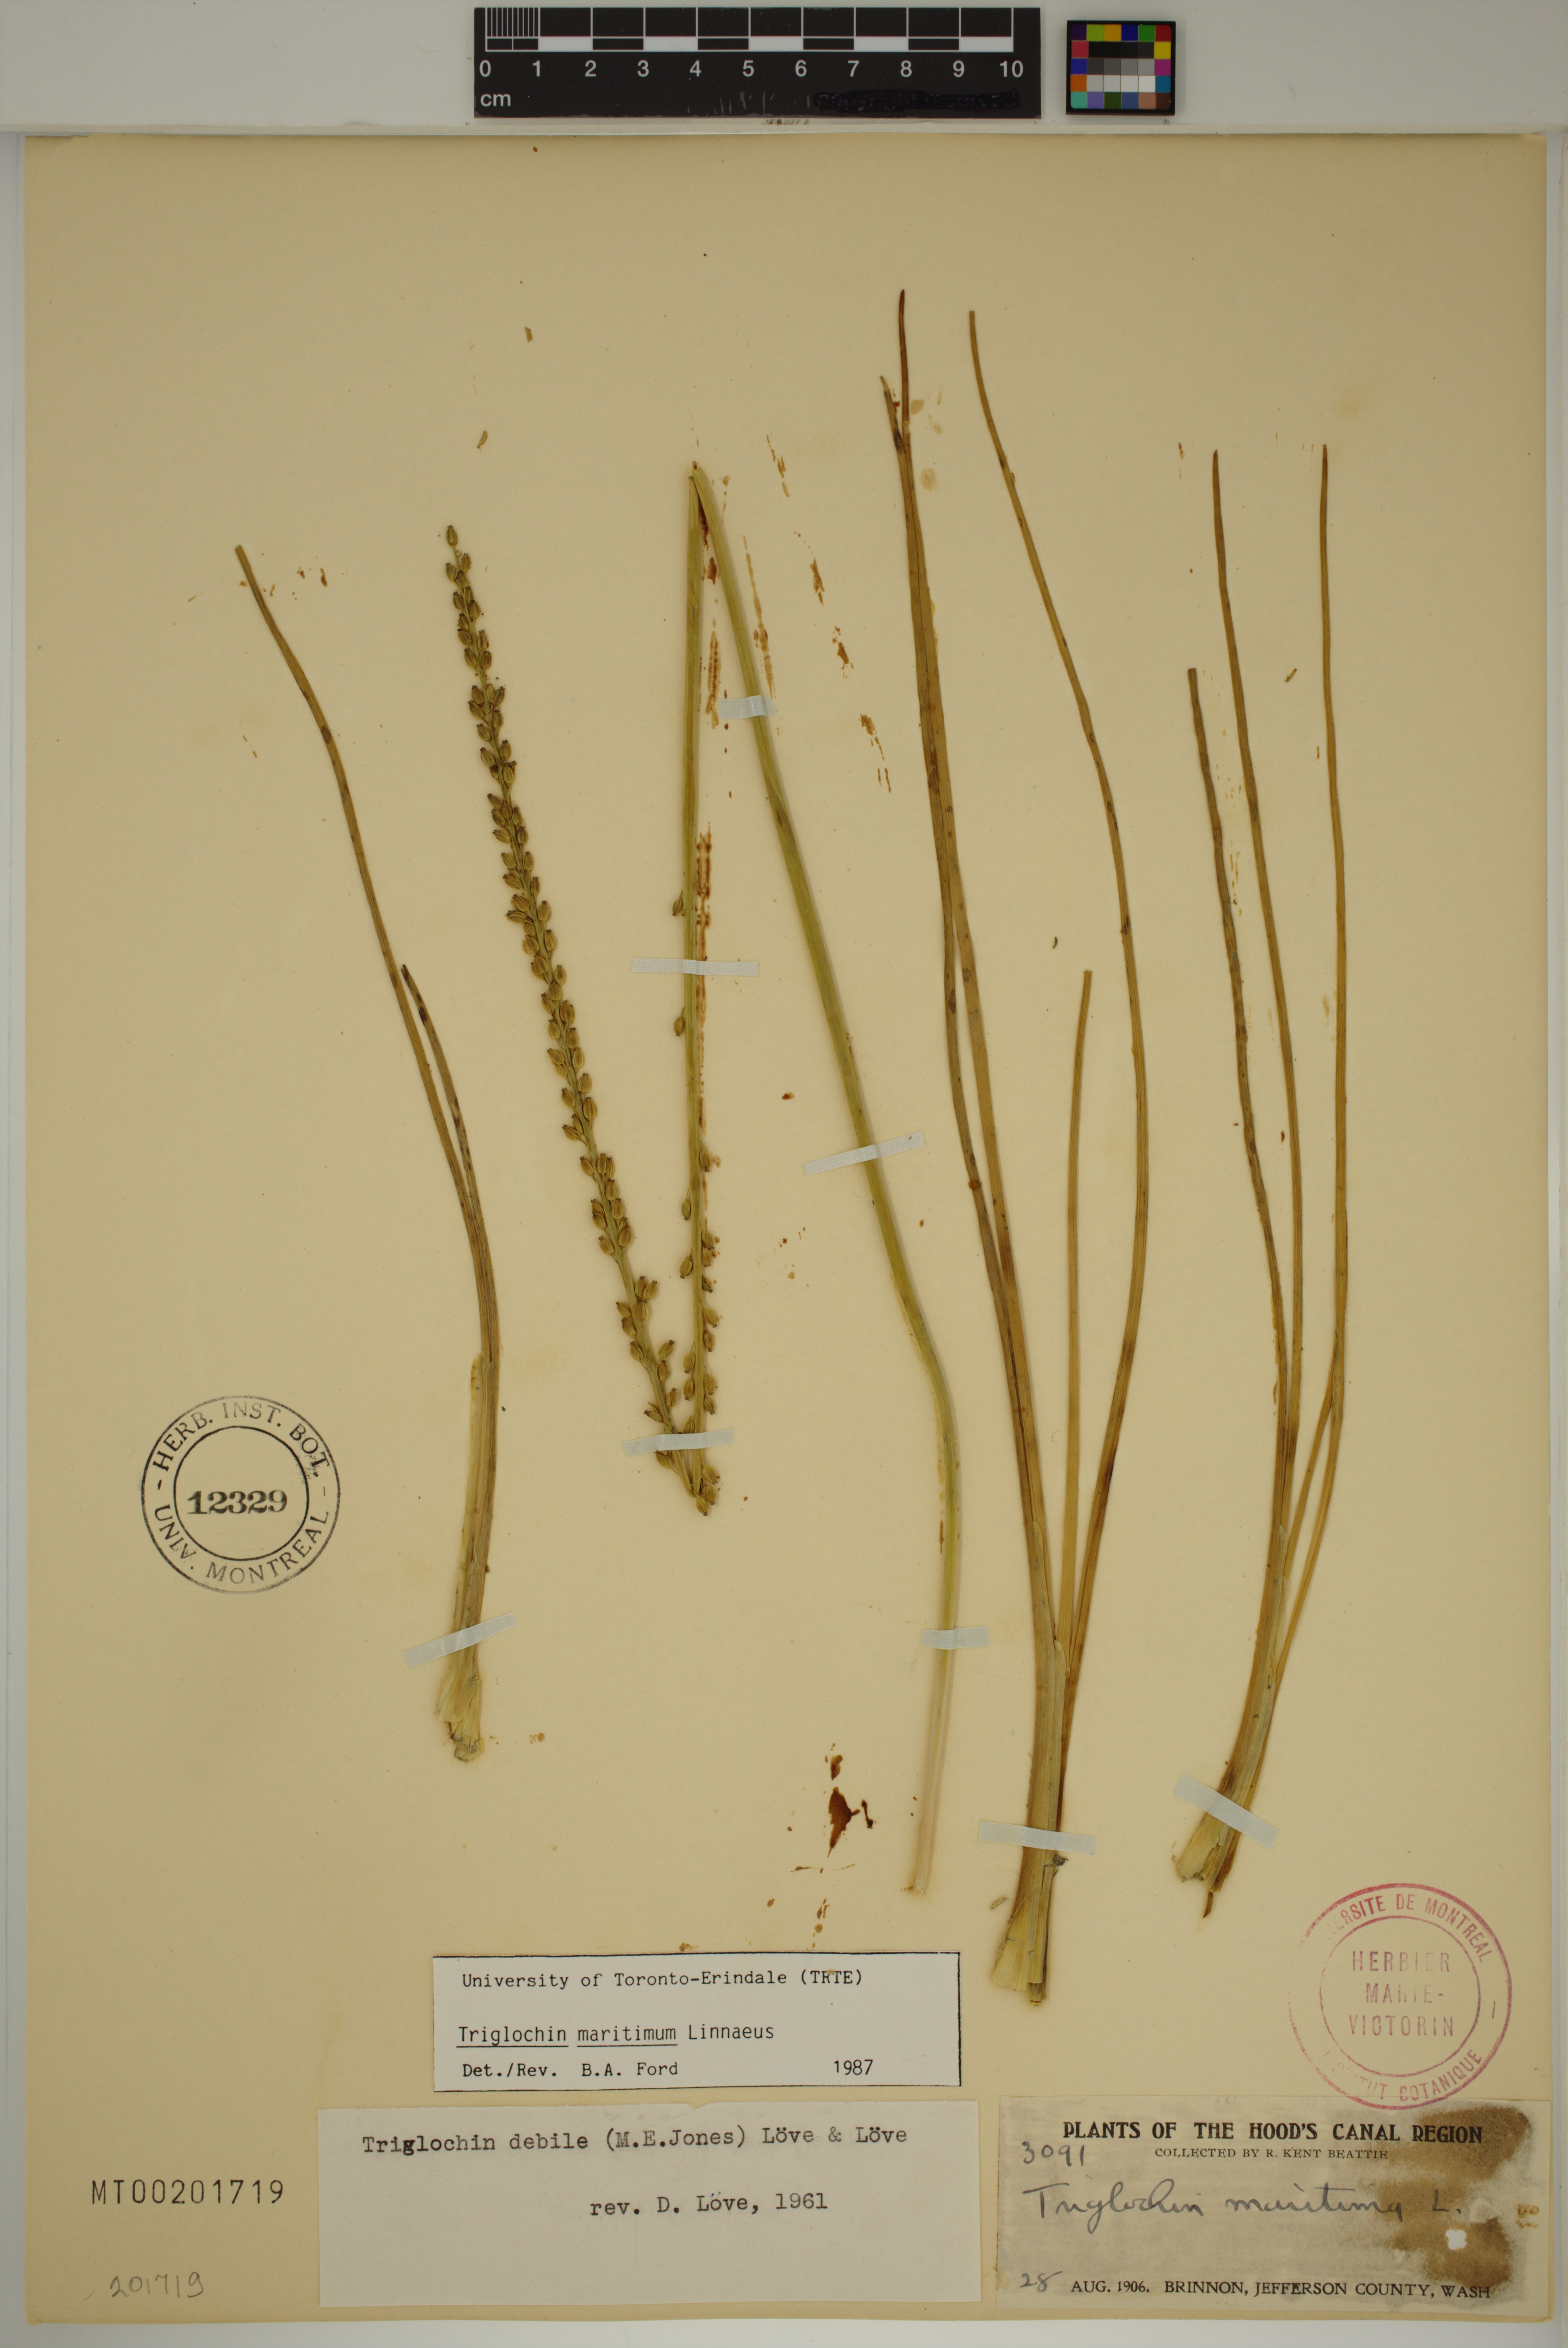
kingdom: Plantae
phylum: Tracheophyta
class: Liliopsida
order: Alismatales
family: Juncaginaceae
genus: Triglochin
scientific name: Triglochin maritima
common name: Sea arrowgrass
